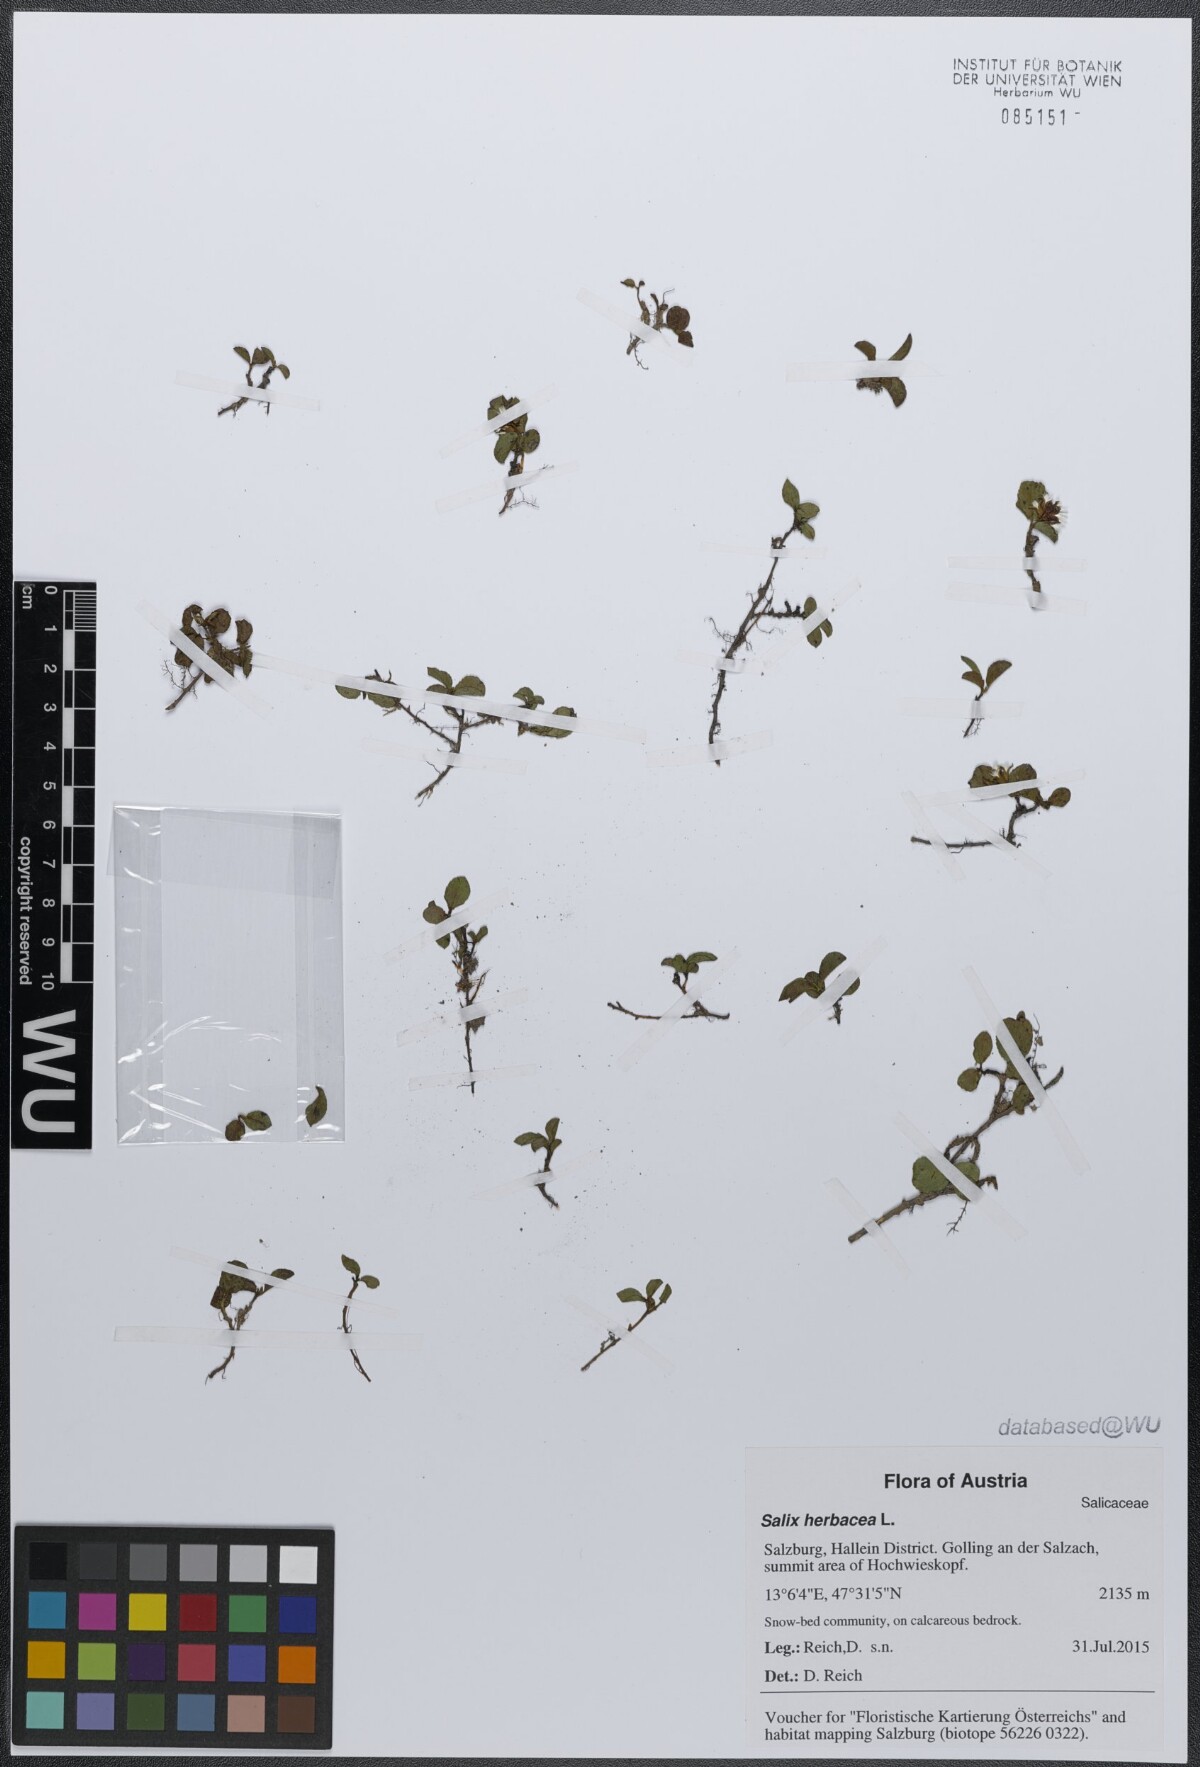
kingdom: Plantae
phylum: Tracheophyta
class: Magnoliopsida
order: Malpighiales
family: Salicaceae
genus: Salix
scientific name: Salix herbacea
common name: Dwarf willow
